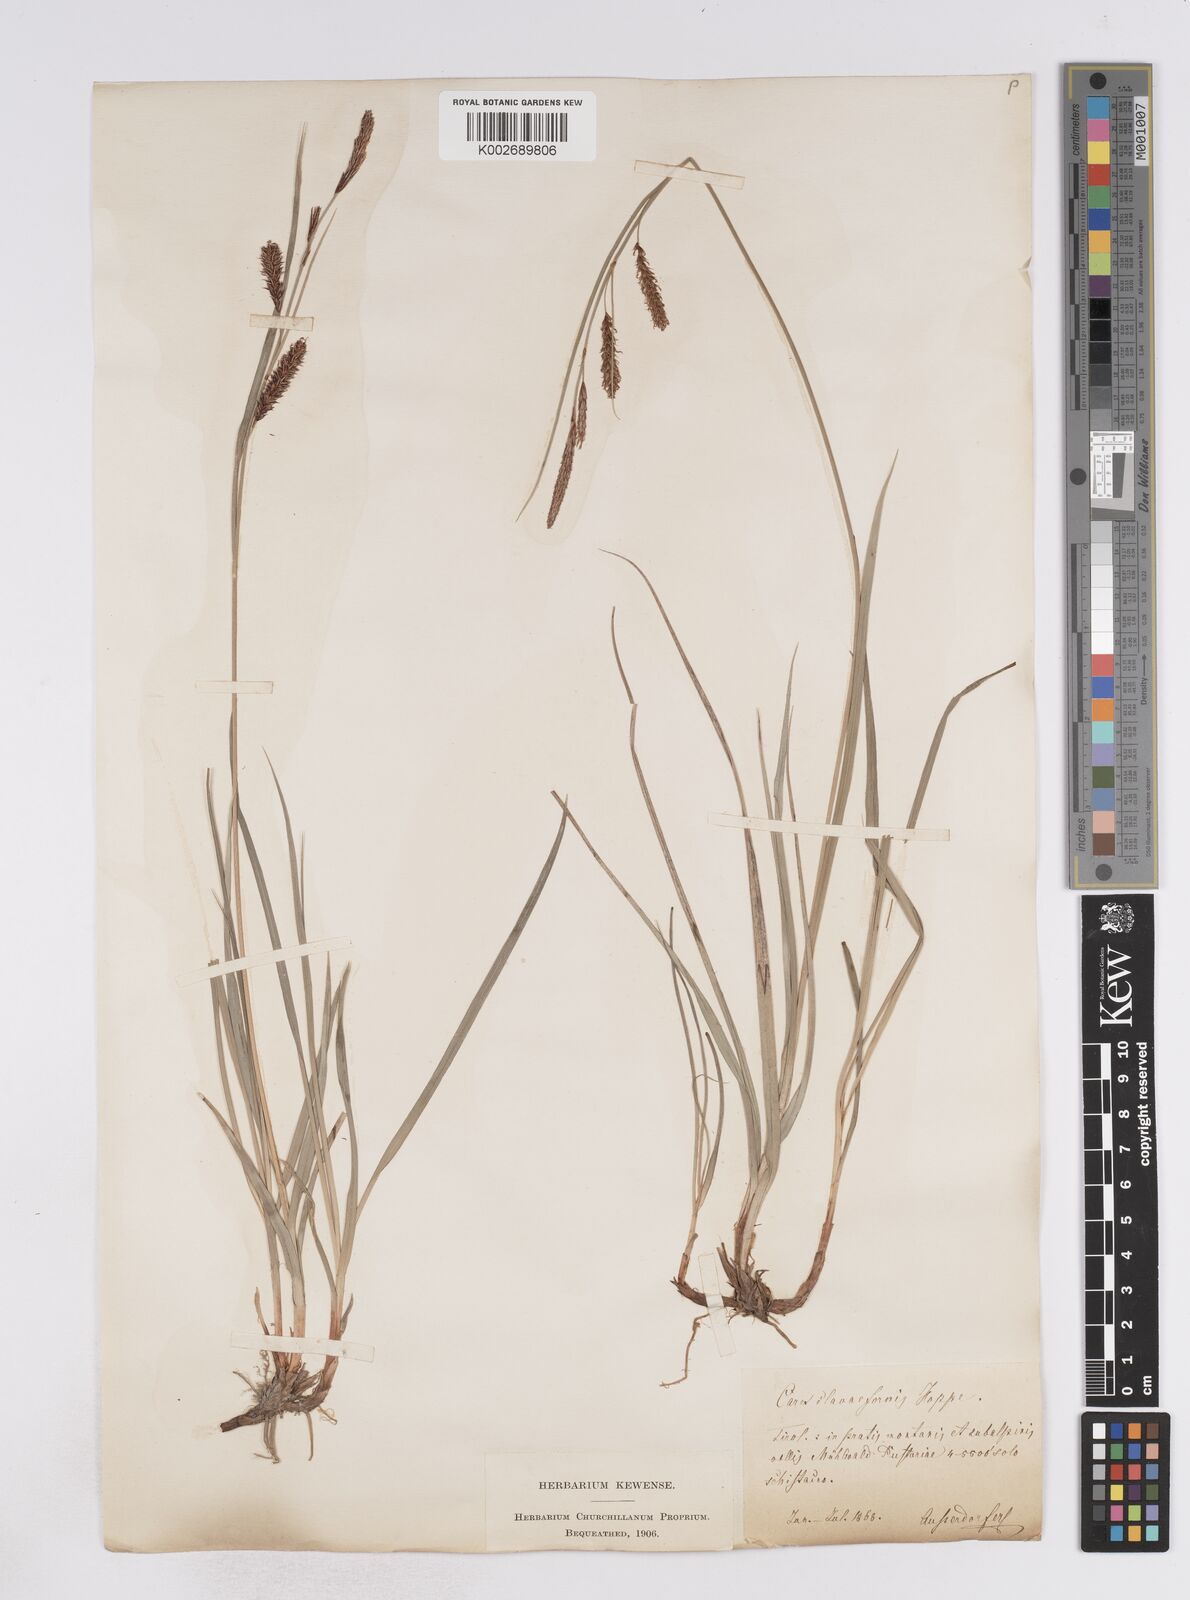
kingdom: Plantae
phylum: Tracheophyta
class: Liliopsida
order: Poales
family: Cyperaceae
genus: Carex
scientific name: Carex flacca
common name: Glaucous sedge
